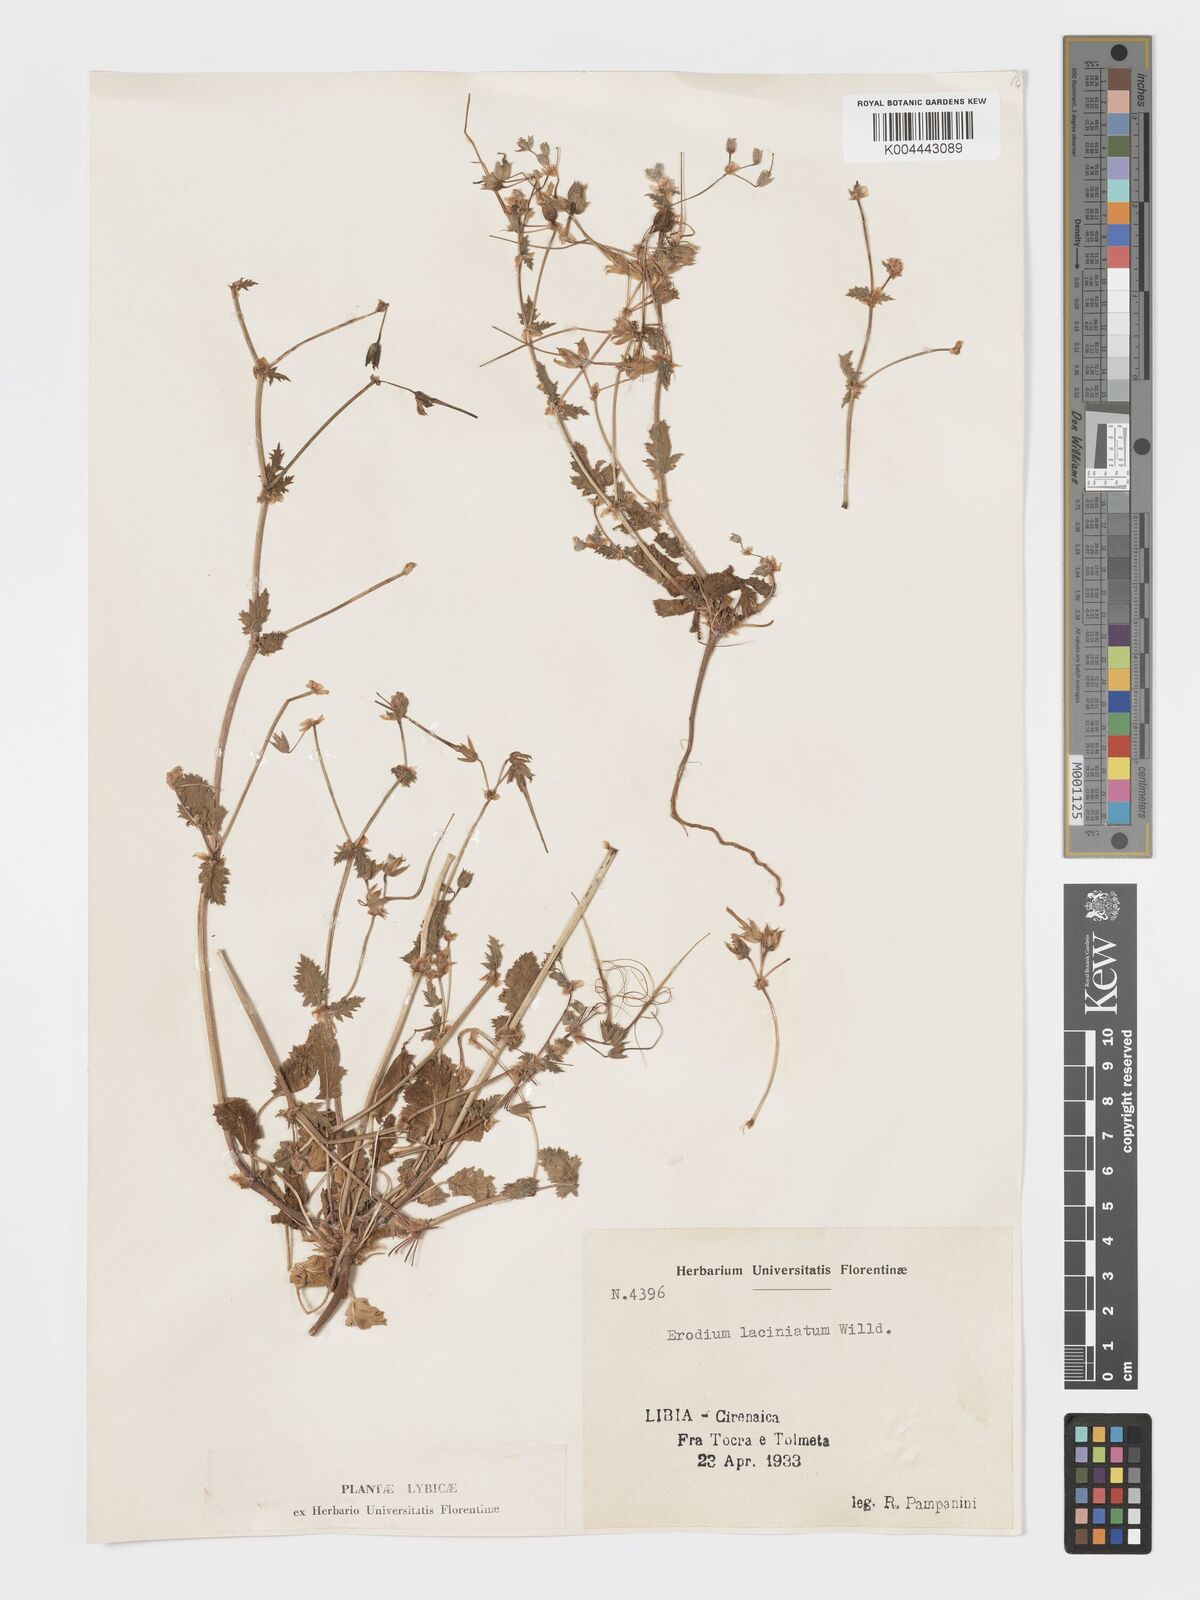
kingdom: Plantae
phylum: Tracheophyta
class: Magnoliopsida
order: Geraniales
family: Geraniaceae
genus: Erodium
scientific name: Erodium laciniatum
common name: Cutleaf stork's bill
